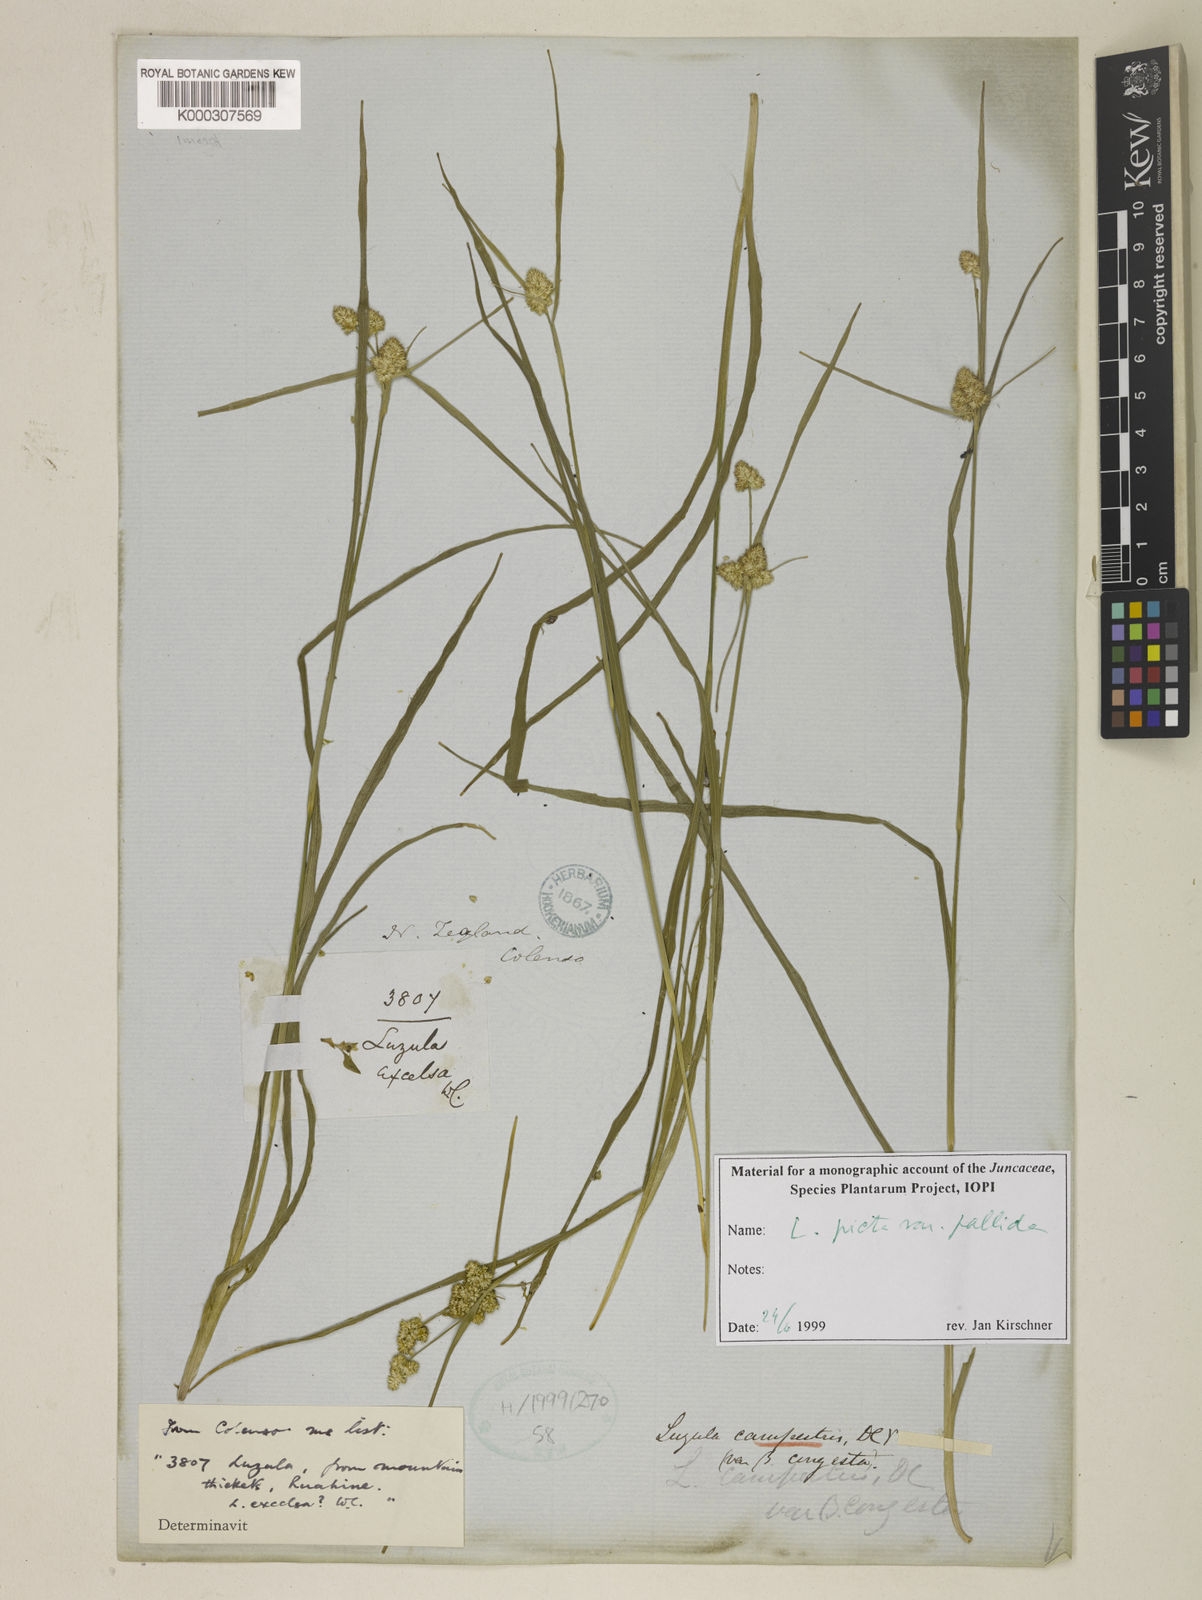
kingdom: Plantae
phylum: Tracheophyta
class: Liliopsida
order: Poales
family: Juncaceae
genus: Luzula
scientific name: Luzula picta
